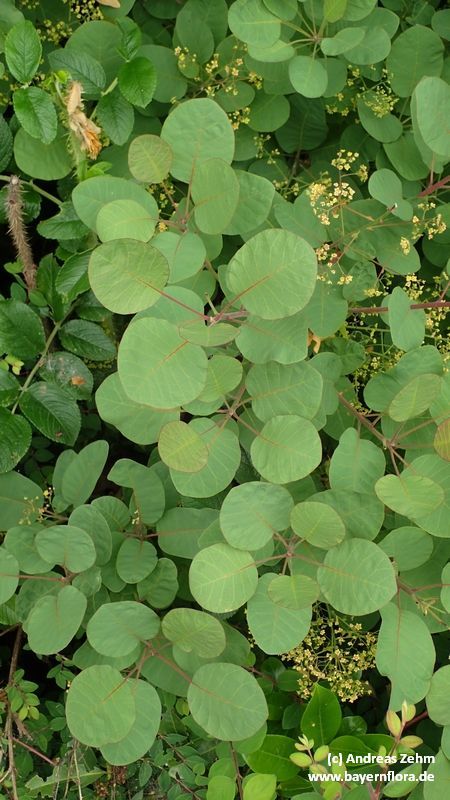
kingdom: Plantae
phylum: Tracheophyta
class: Magnoliopsida
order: Sapindales
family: Anacardiaceae
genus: Cotinus
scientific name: Cotinus coggygria
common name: Smoke-tree
